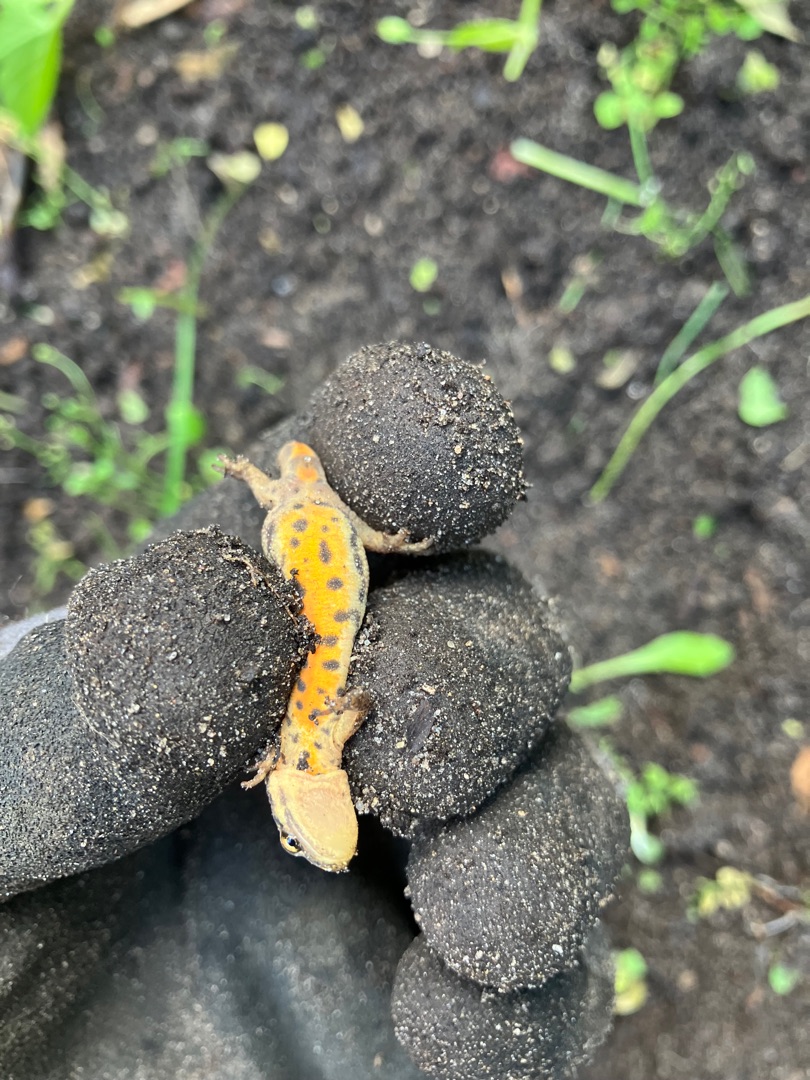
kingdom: Animalia
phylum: Chordata
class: Amphibia
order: Caudata
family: Salamandridae
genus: Lissotriton
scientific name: Lissotriton vulgaris
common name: Lille vandsalamander
